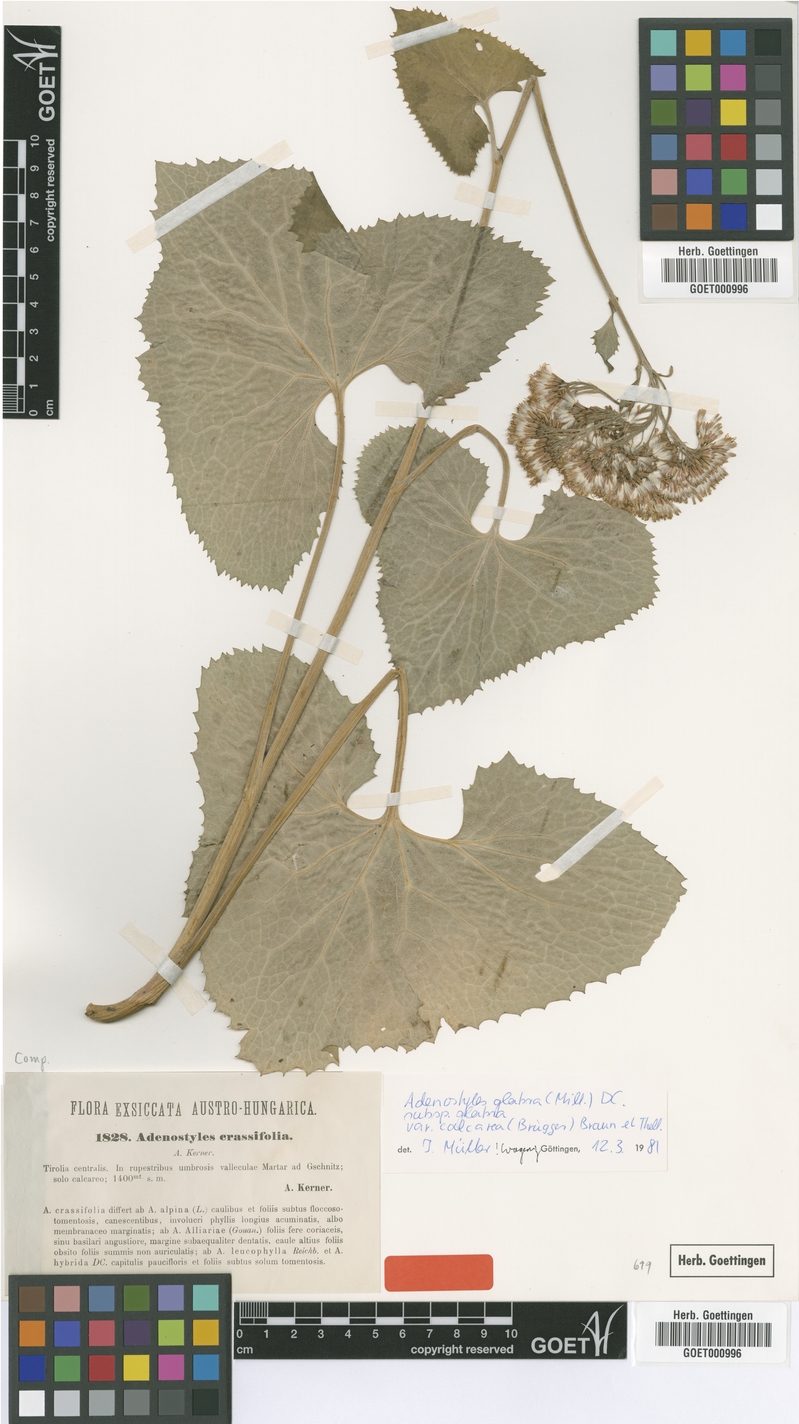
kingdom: Plantae
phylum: Tracheophyta
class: Magnoliopsida
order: Asterales
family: Asteraceae
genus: Adenostyles
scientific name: Adenostyles alpina
